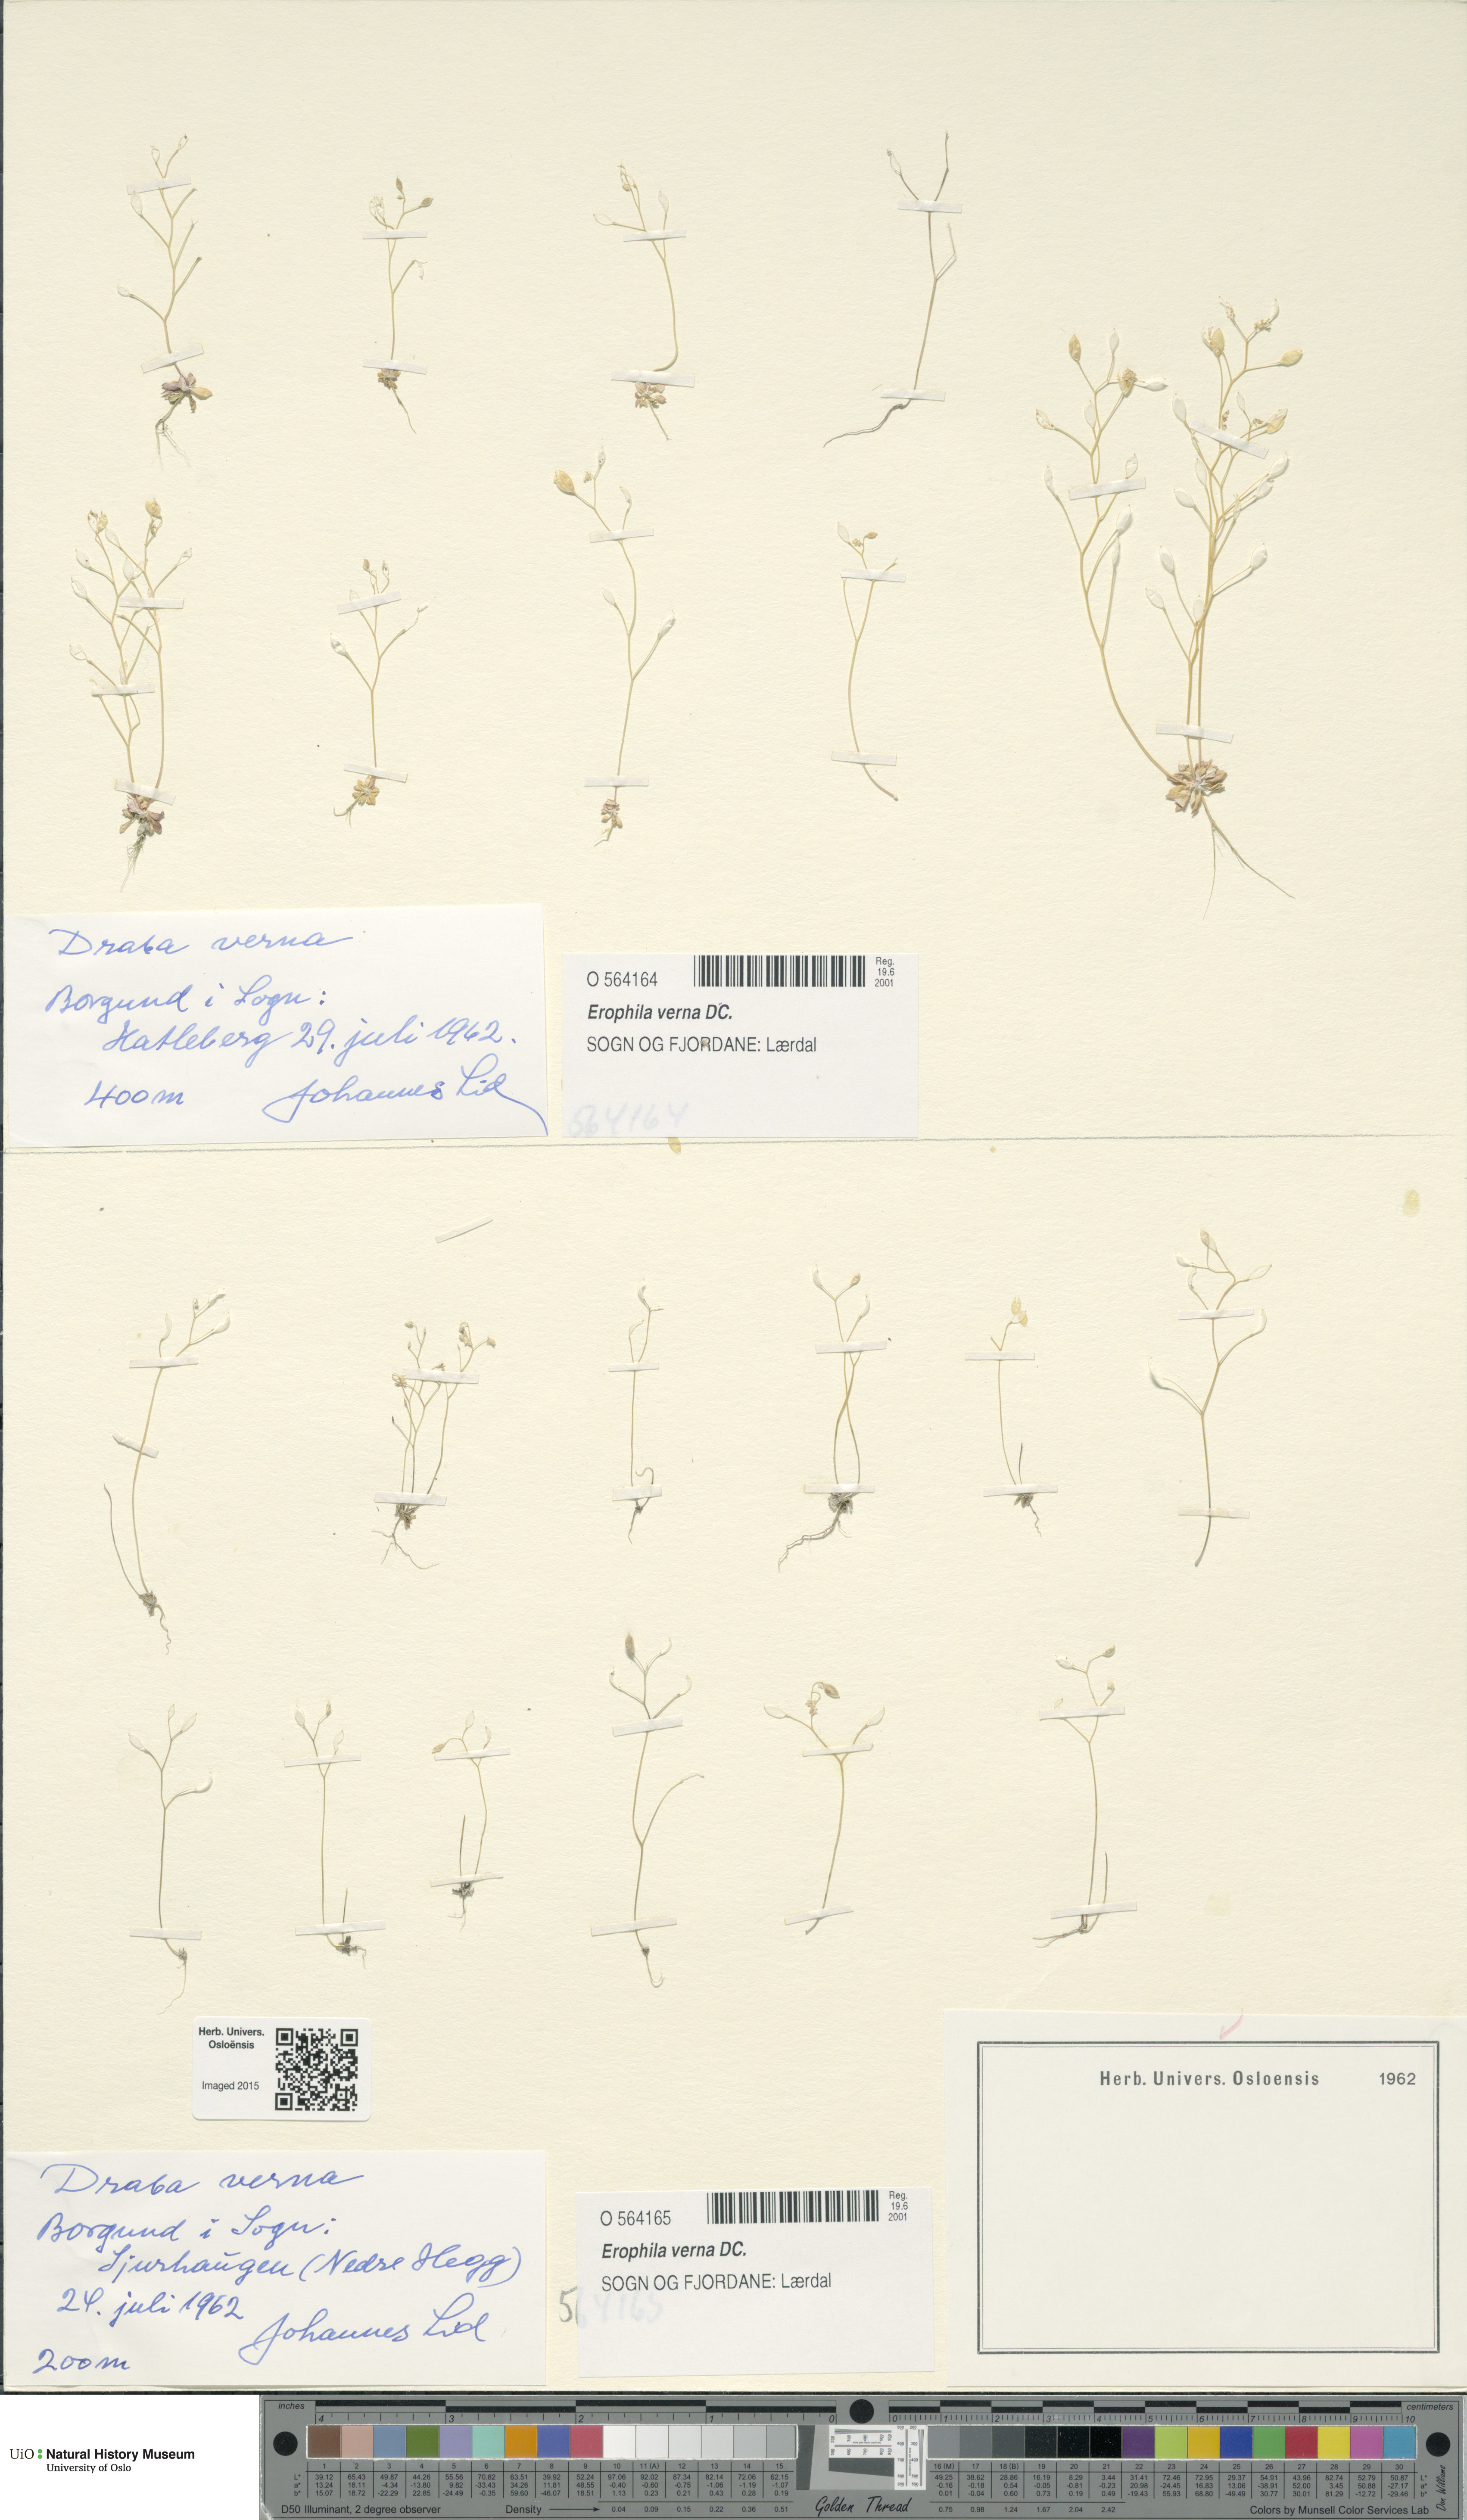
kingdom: Plantae
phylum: Tracheophyta
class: Magnoliopsida
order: Brassicales
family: Brassicaceae
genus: Draba
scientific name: Draba verna
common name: Spring draba
